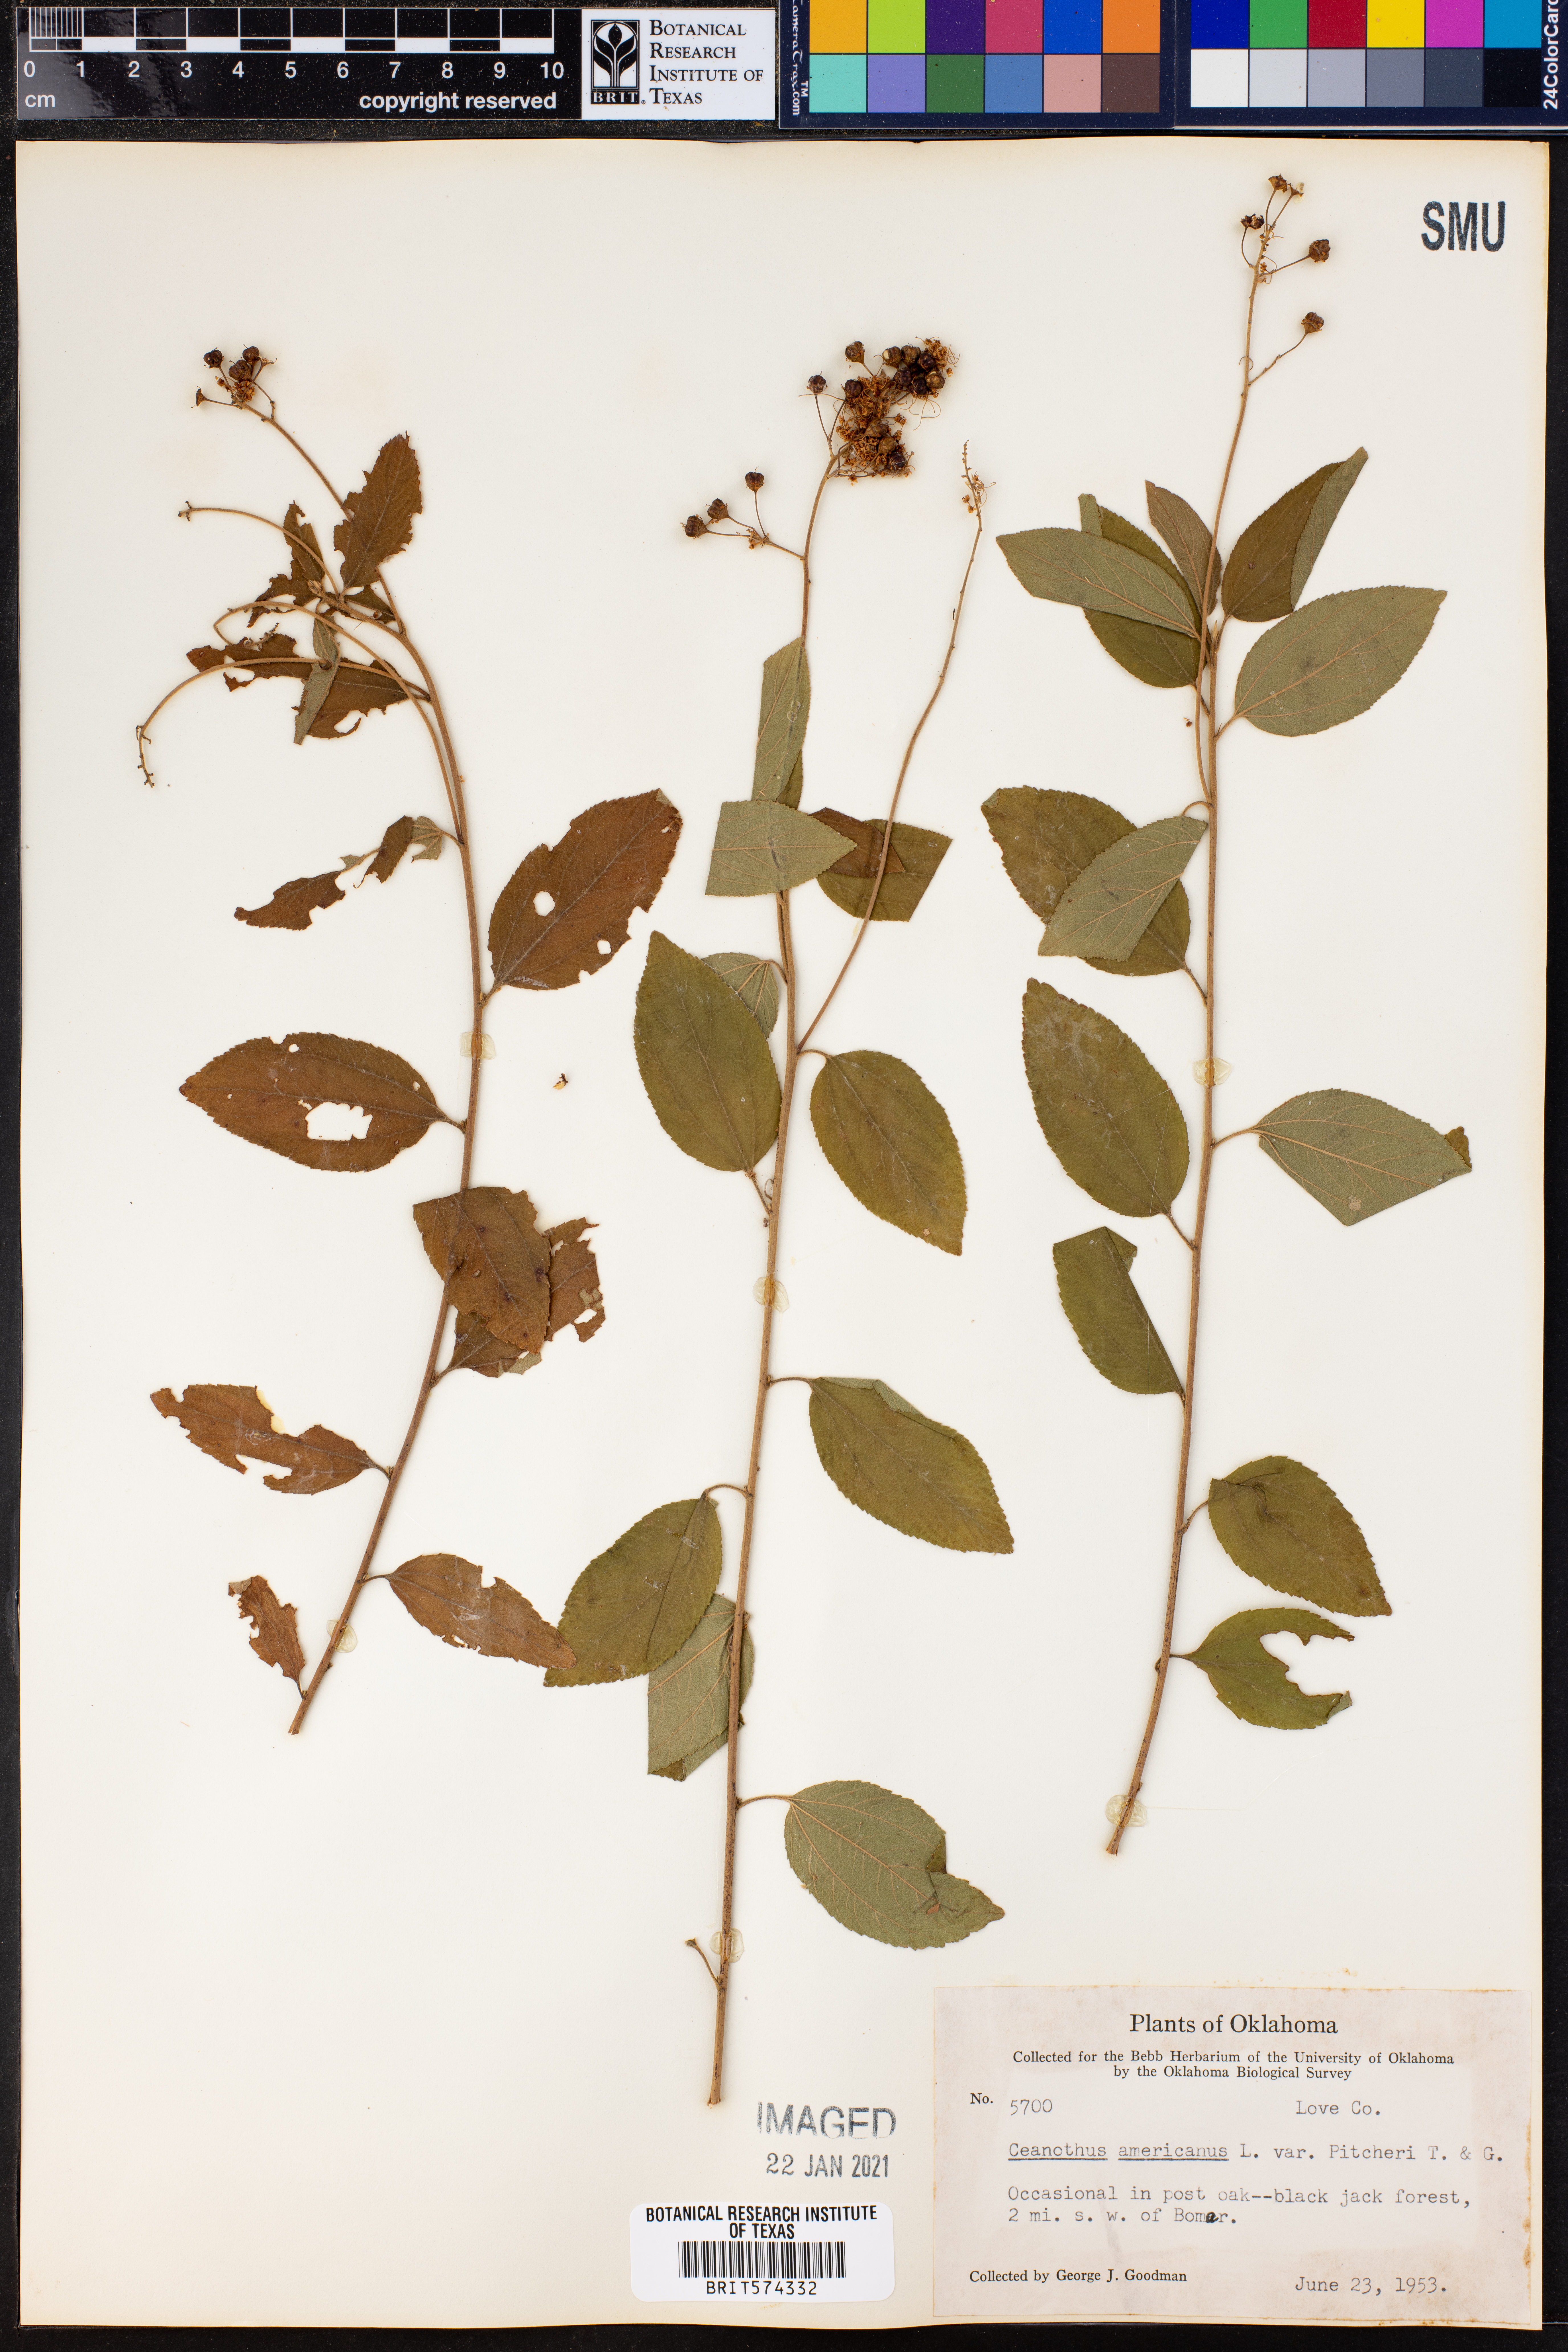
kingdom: Plantae
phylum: Tracheophyta
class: Magnoliopsida
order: Rosales
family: Rhamnaceae
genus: Ceanothus
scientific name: Ceanothus americanus
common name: Redroot
